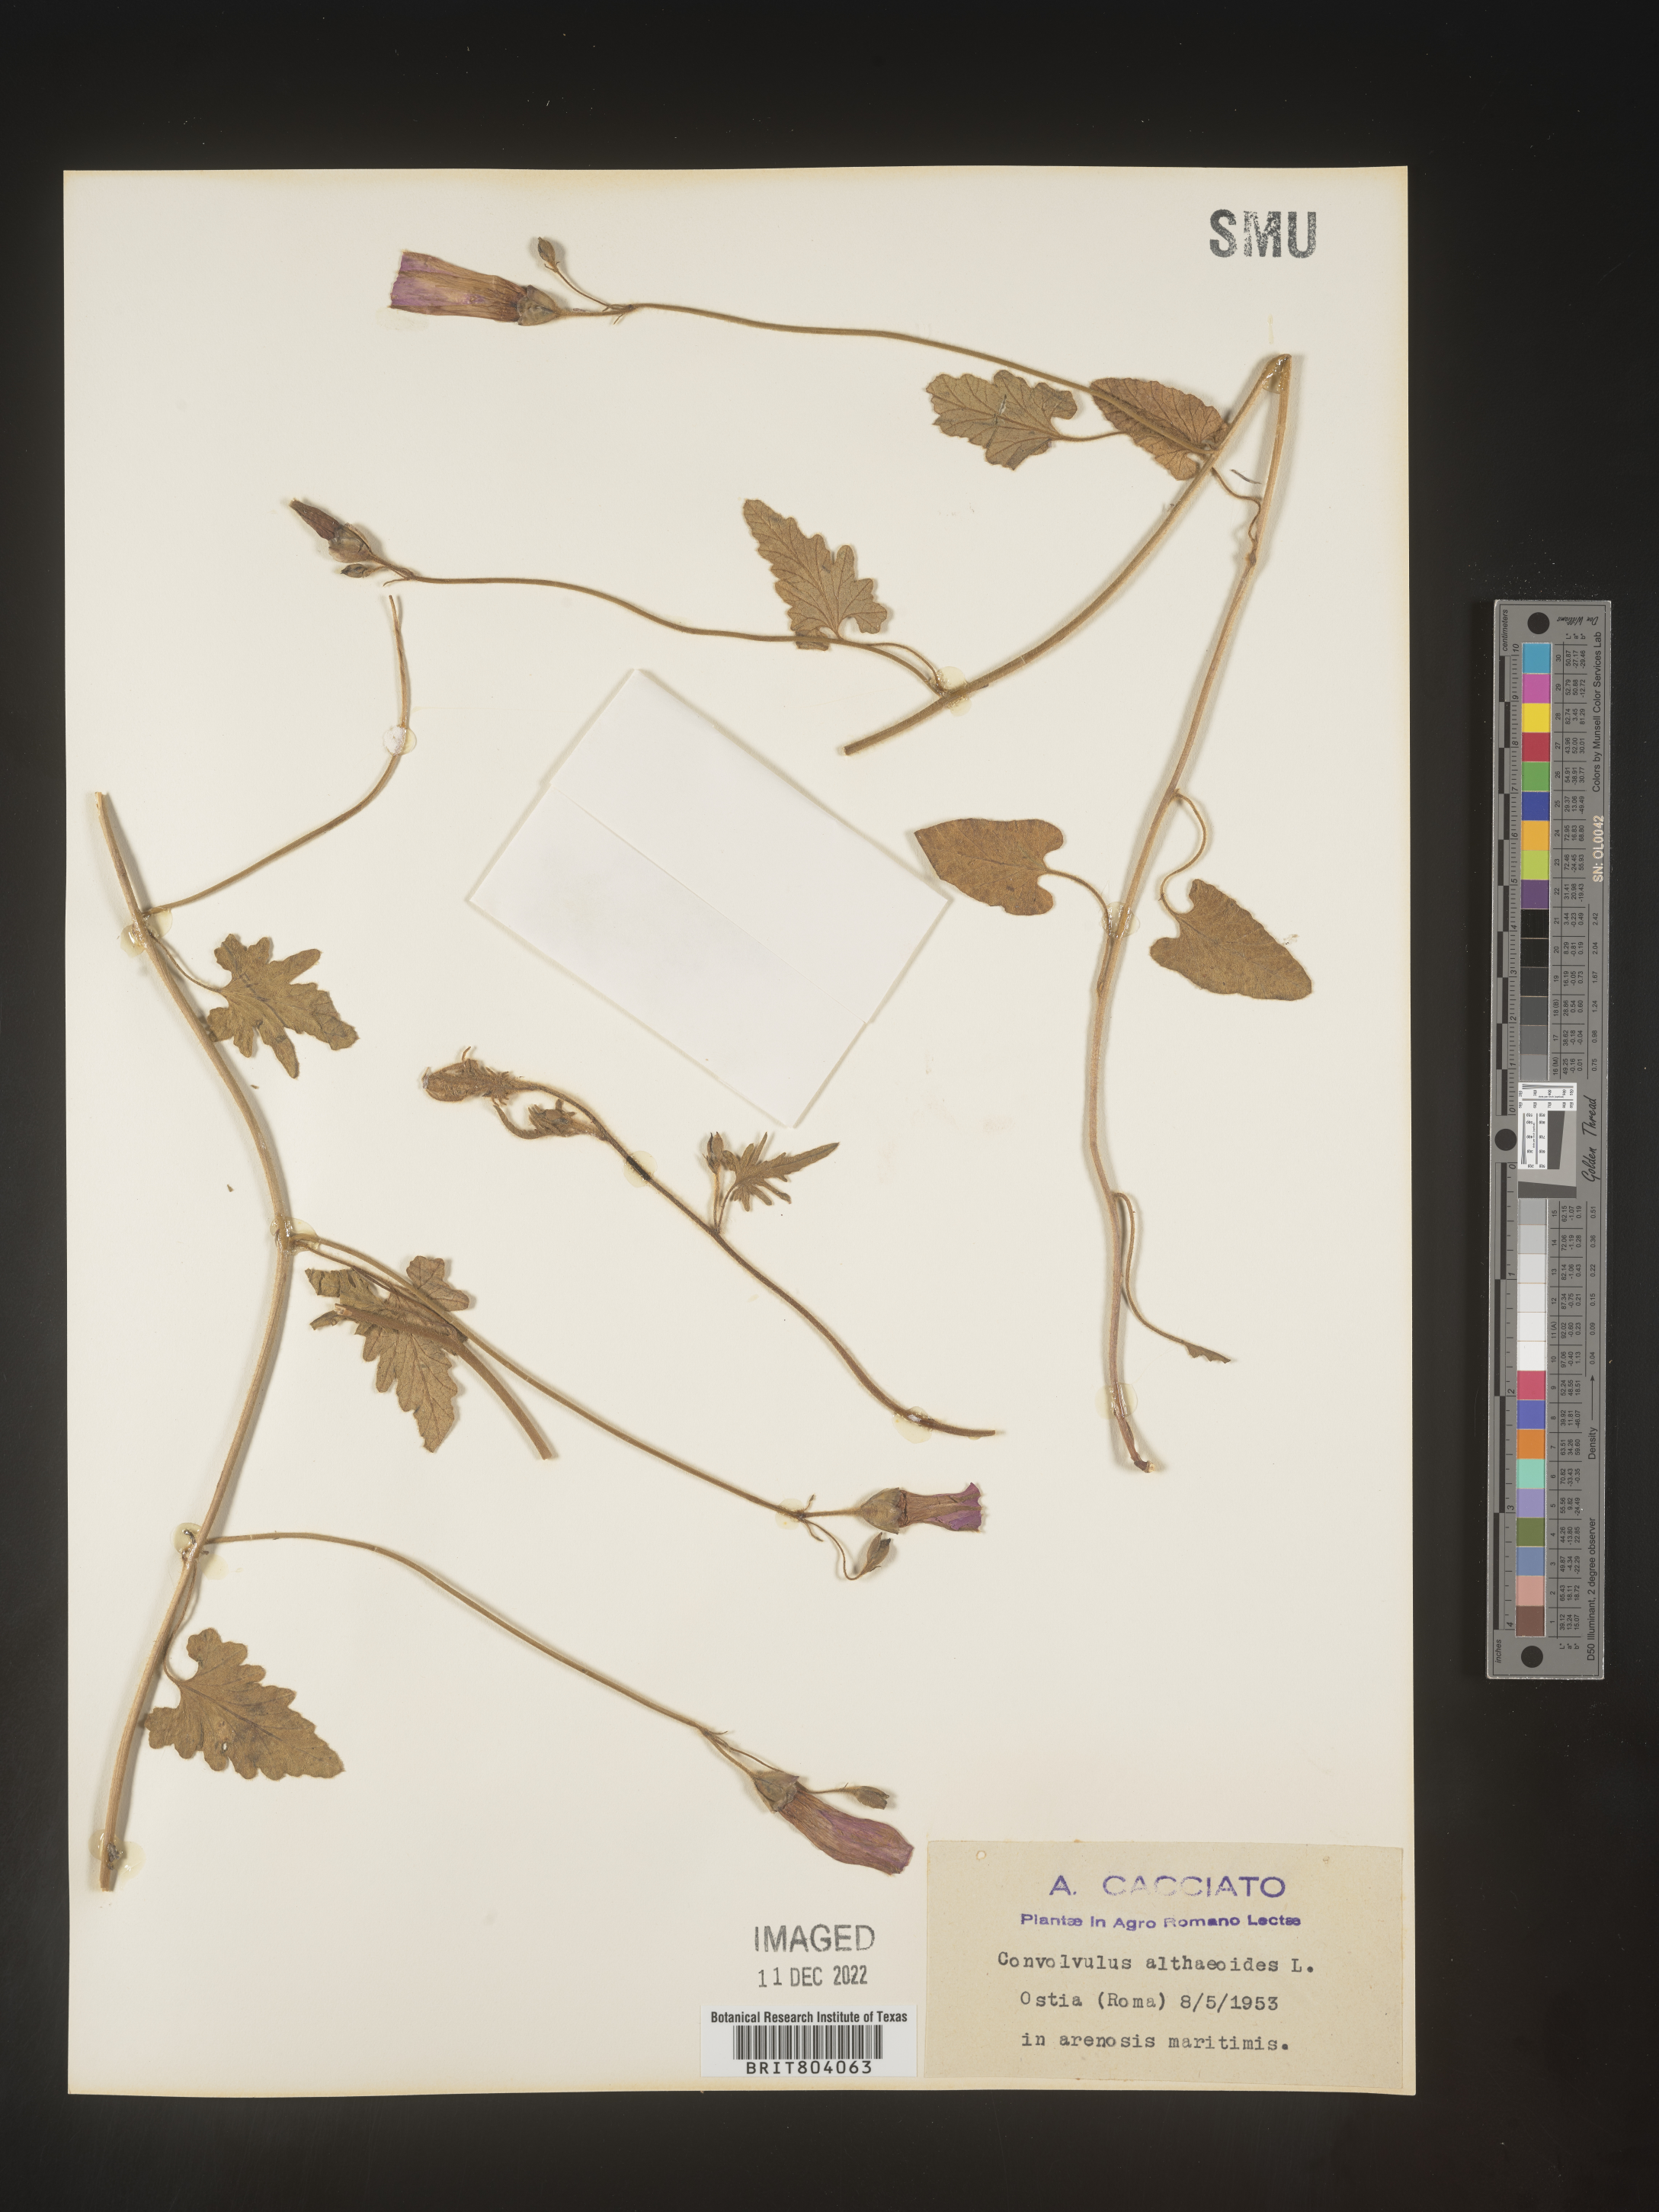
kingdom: Plantae
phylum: Tracheophyta
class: Magnoliopsida
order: Solanales
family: Convolvulaceae
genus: Convolvulus
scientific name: Convolvulus
